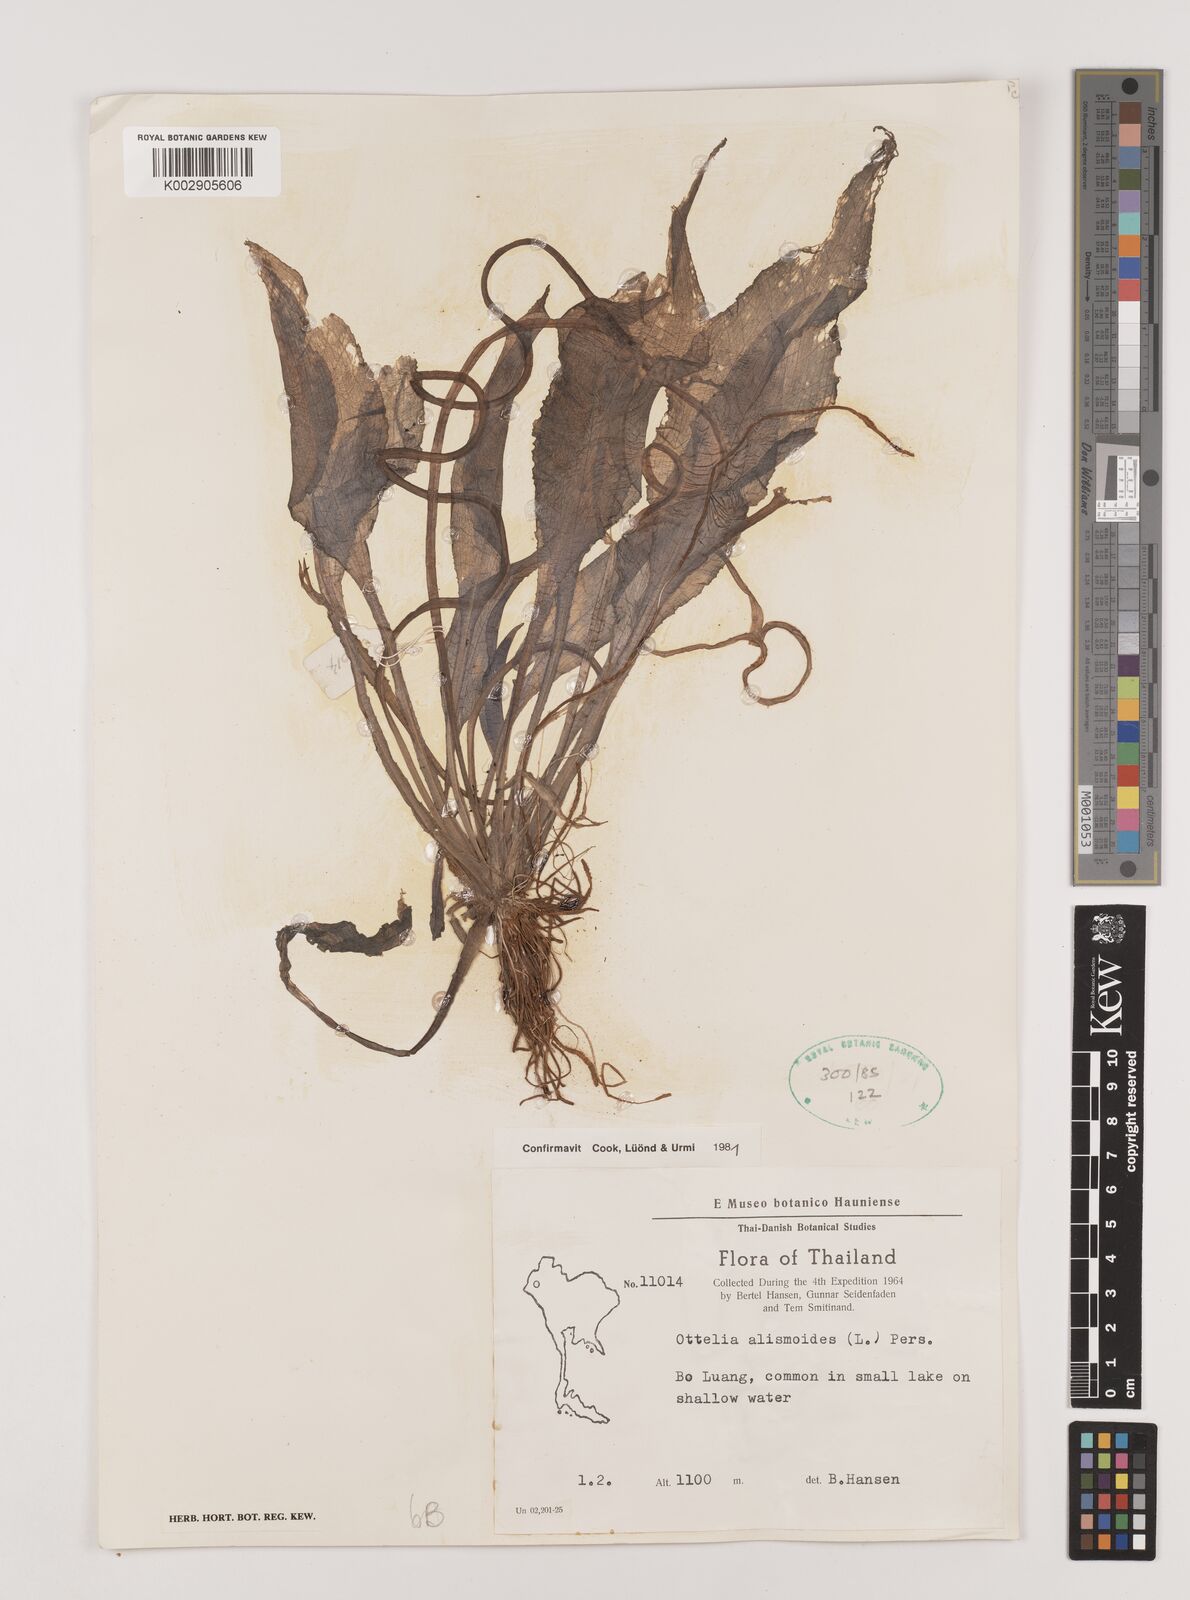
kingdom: Plantae
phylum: Tracheophyta
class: Liliopsida
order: Alismatales
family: Hydrocharitaceae
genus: Ottelia
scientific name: Ottelia alismoides
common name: Duck-lettuce
